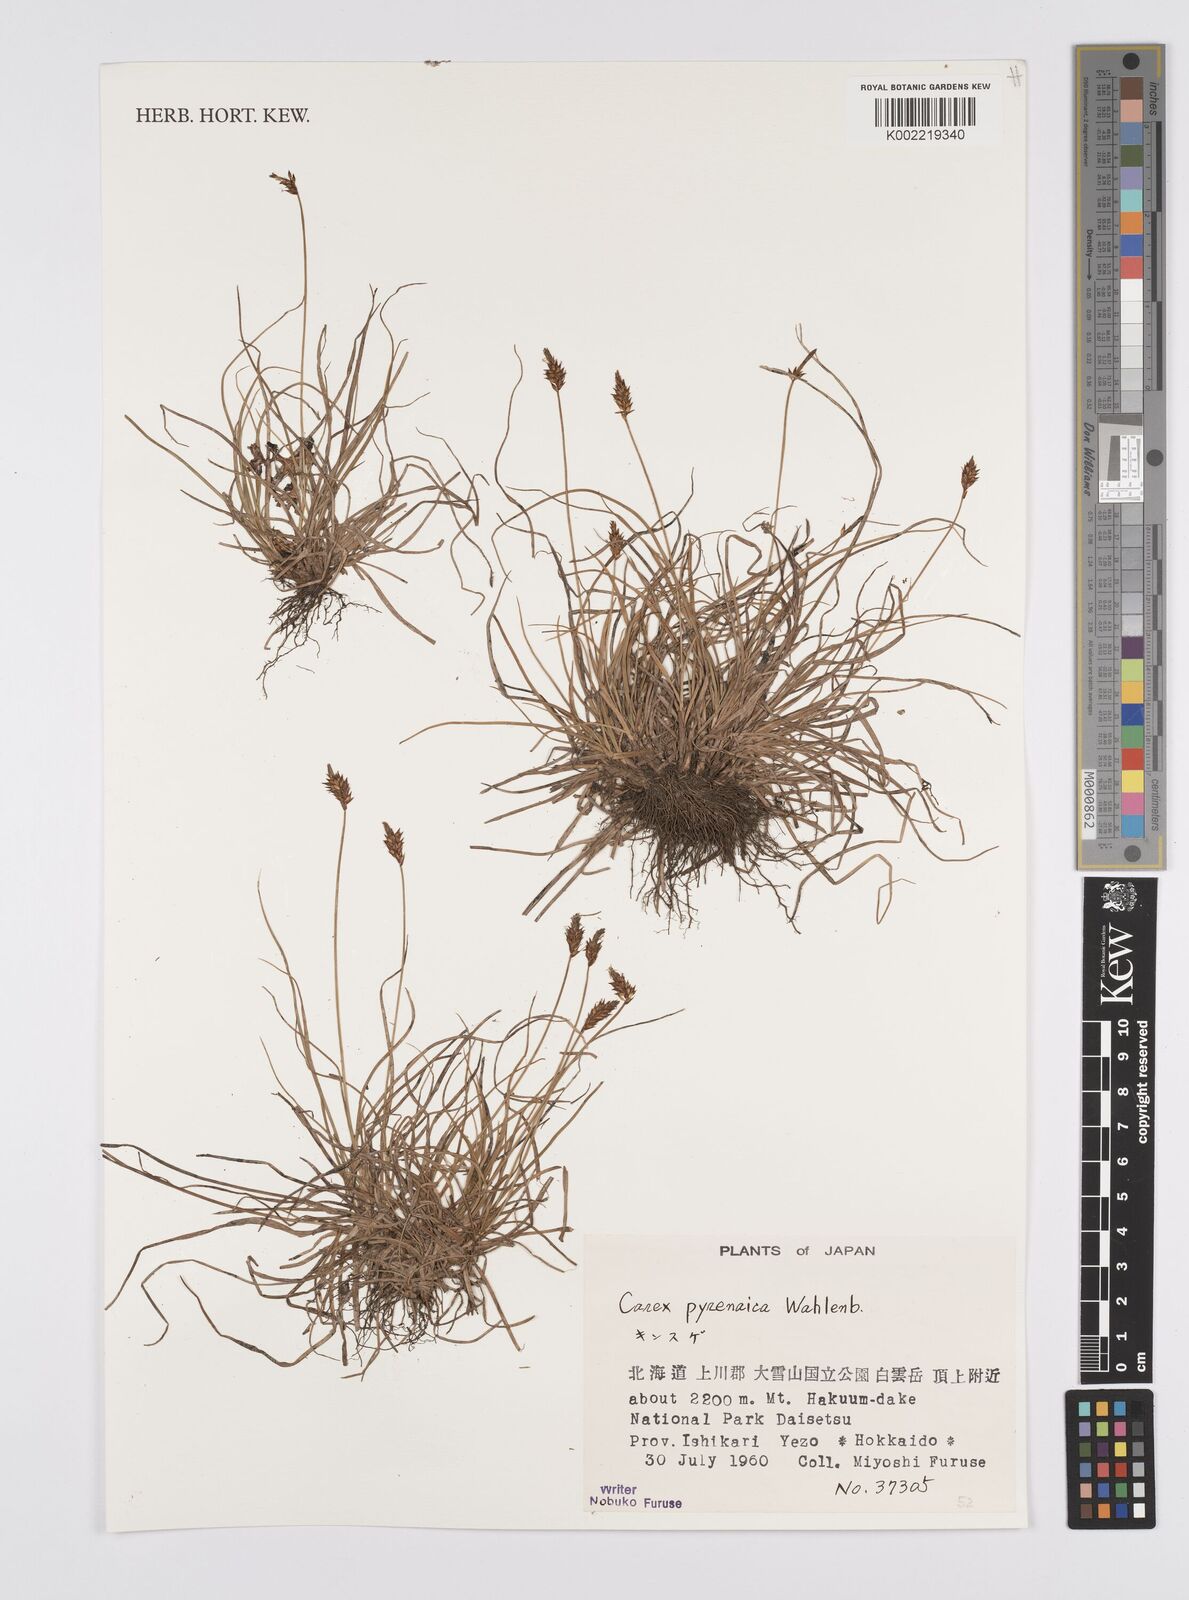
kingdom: Plantae
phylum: Tracheophyta
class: Liliopsida
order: Poales
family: Cyperaceae
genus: Carex
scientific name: Carex pyrenaica
